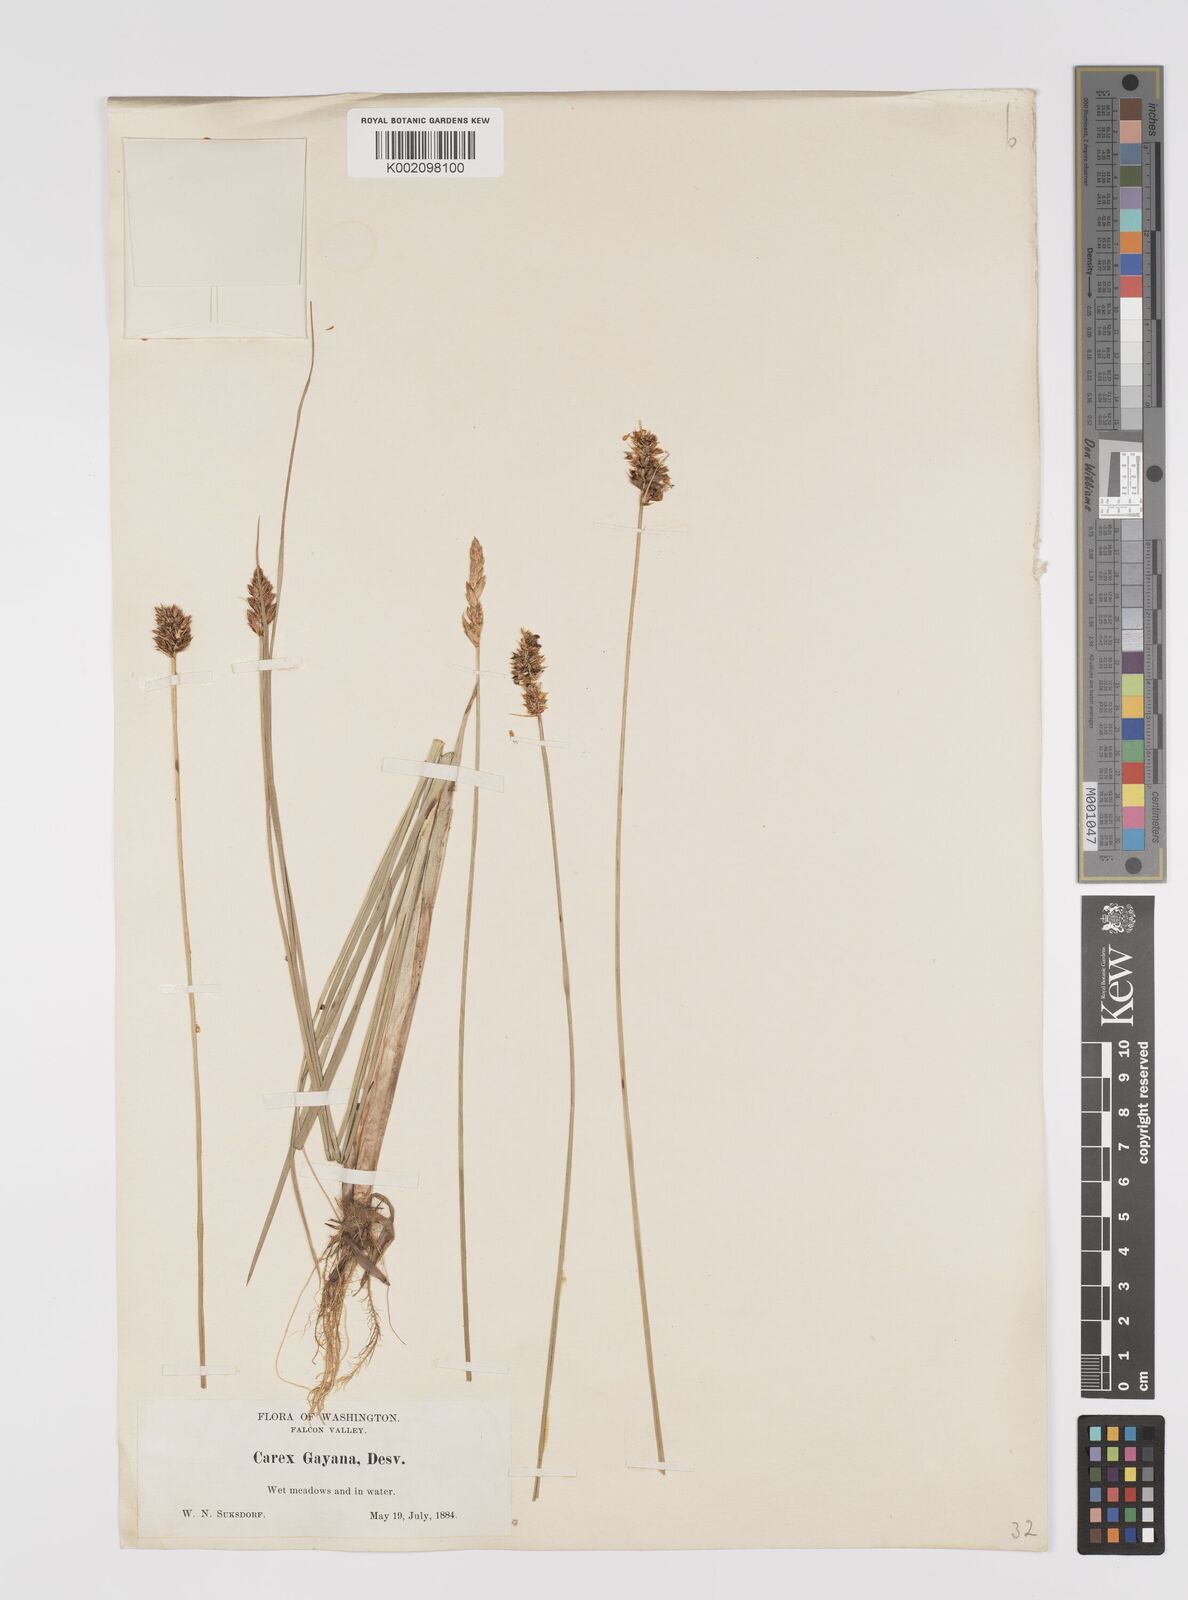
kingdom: Plantae
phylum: Tracheophyta
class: Liliopsida
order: Poales
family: Cyperaceae
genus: Carex
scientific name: Carex praegracilis
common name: Black creeper sedge
